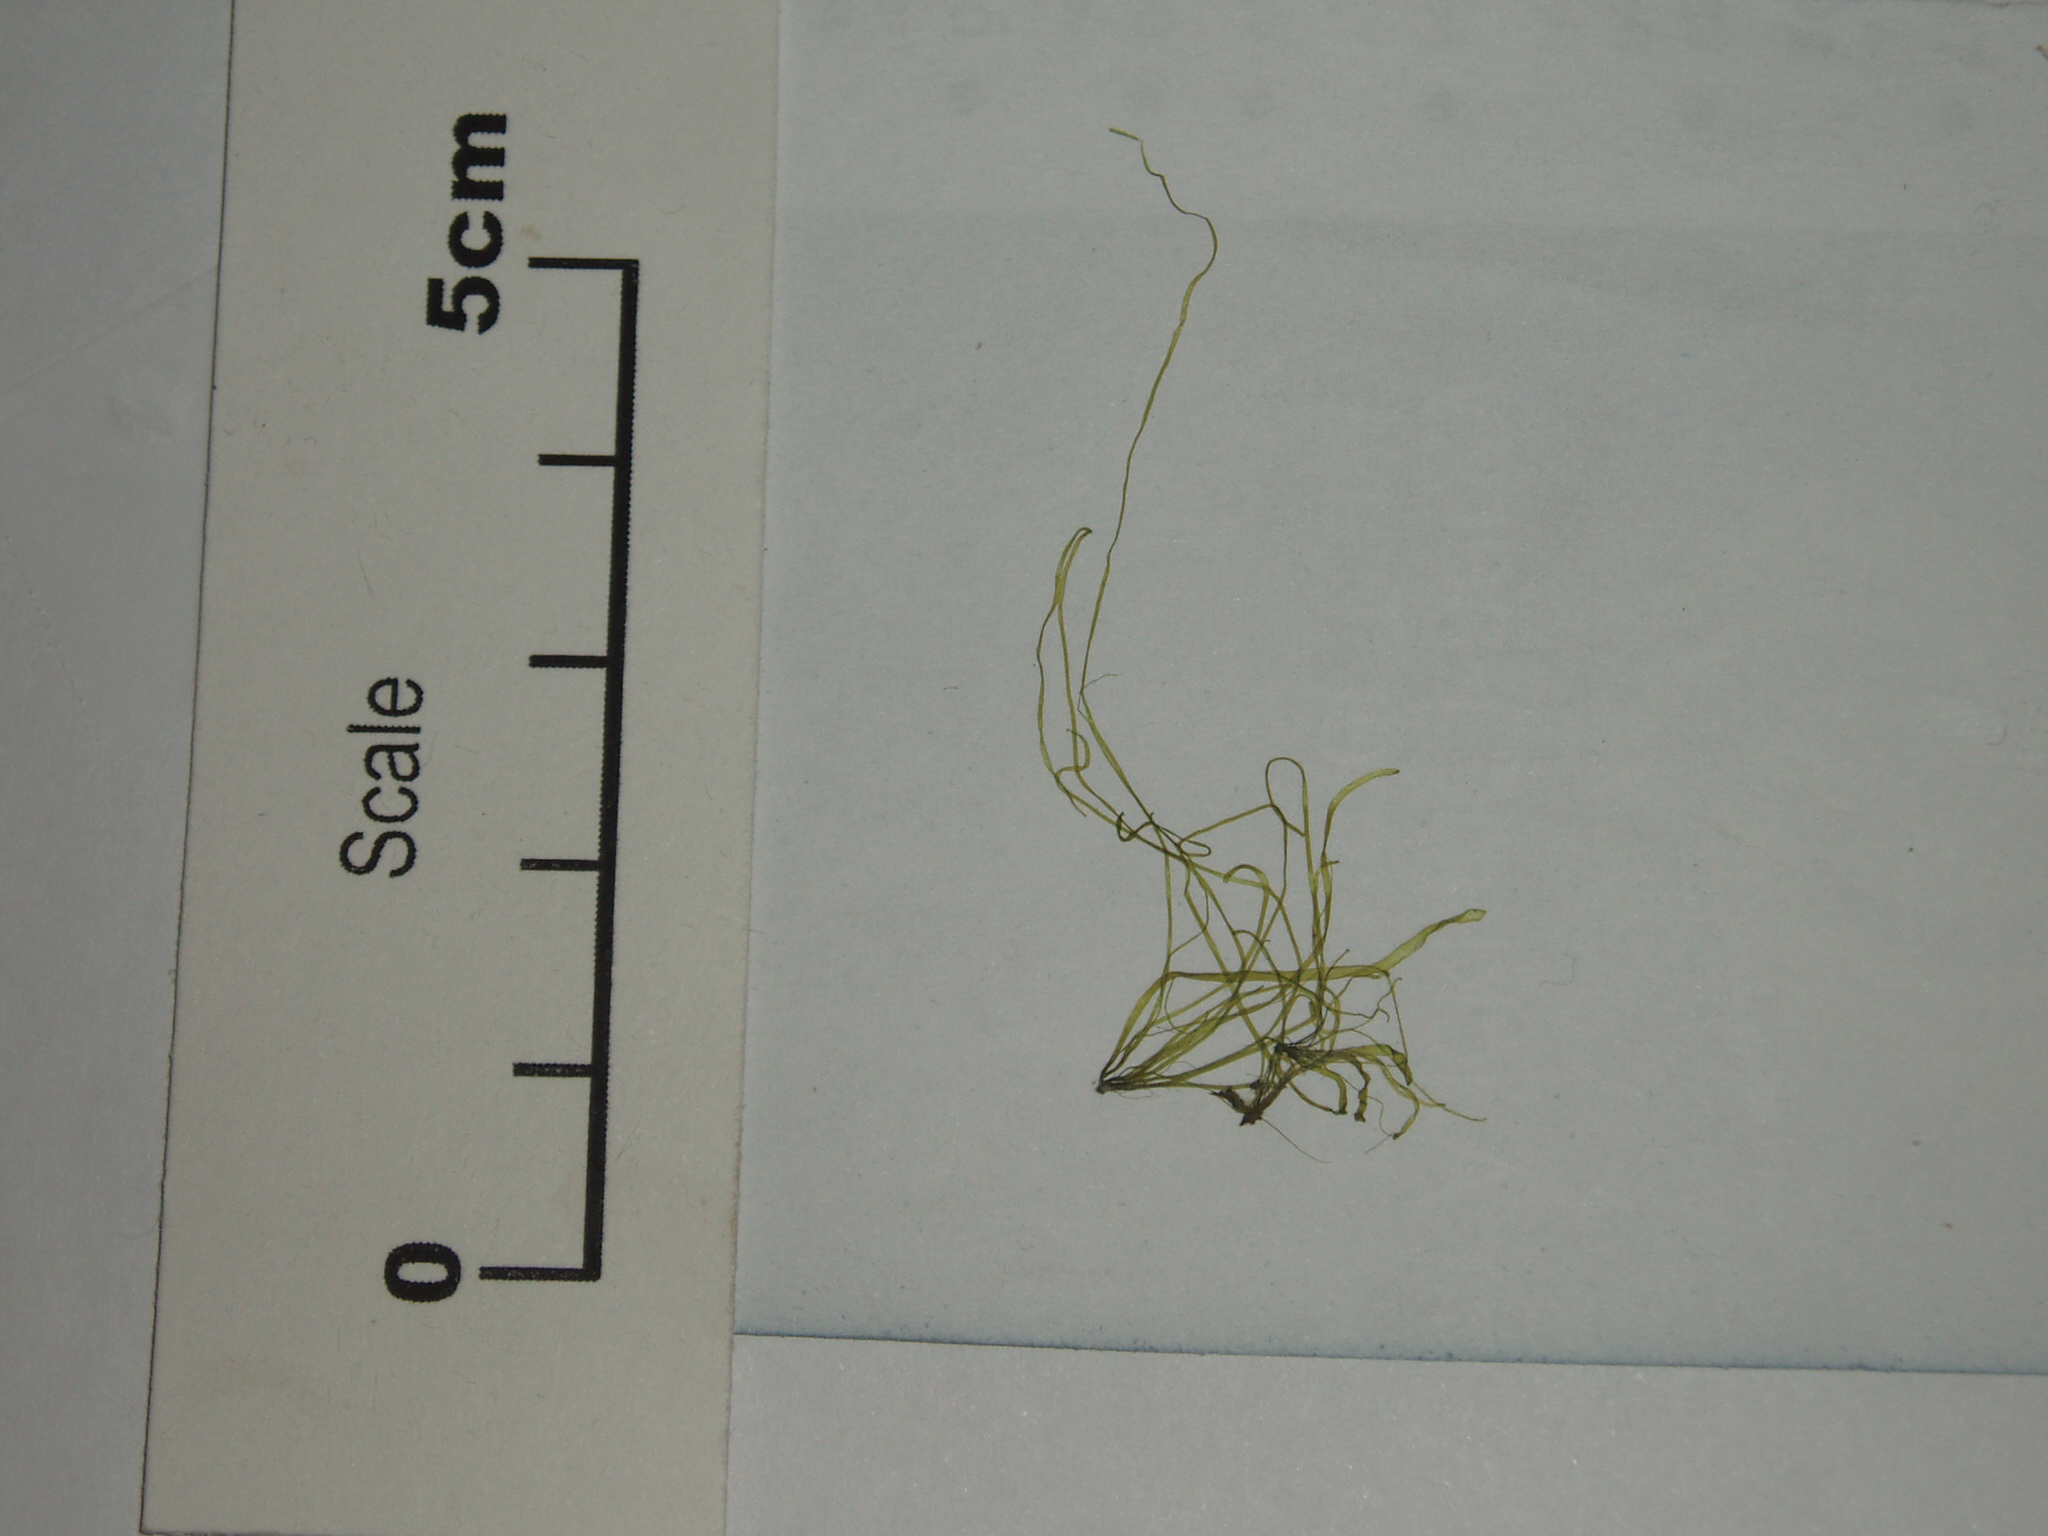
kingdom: Plantae
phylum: Chlorophyta
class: Ulvophyceae
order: Ulvales
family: Ulvaceae
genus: Ulva
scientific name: Ulva prolifera
